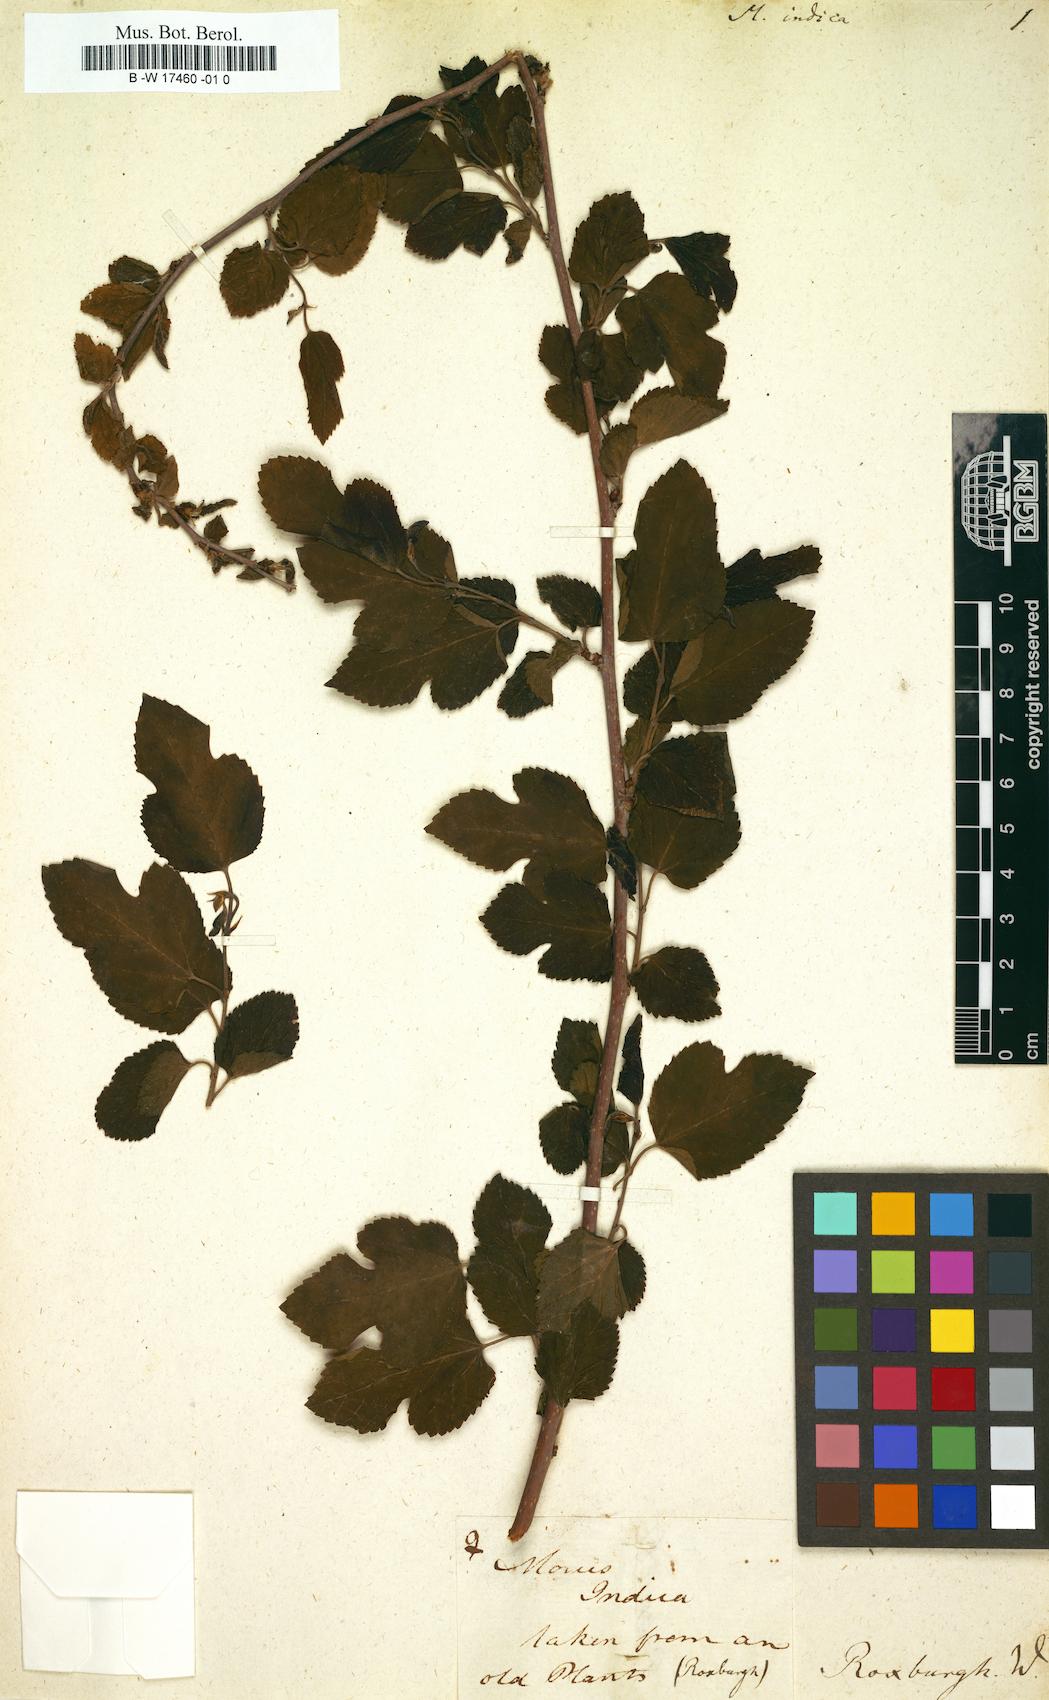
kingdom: Plantae
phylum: Tracheophyta
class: Magnoliopsida
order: Rosales
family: Moraceae
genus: Morus
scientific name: Morus indica
